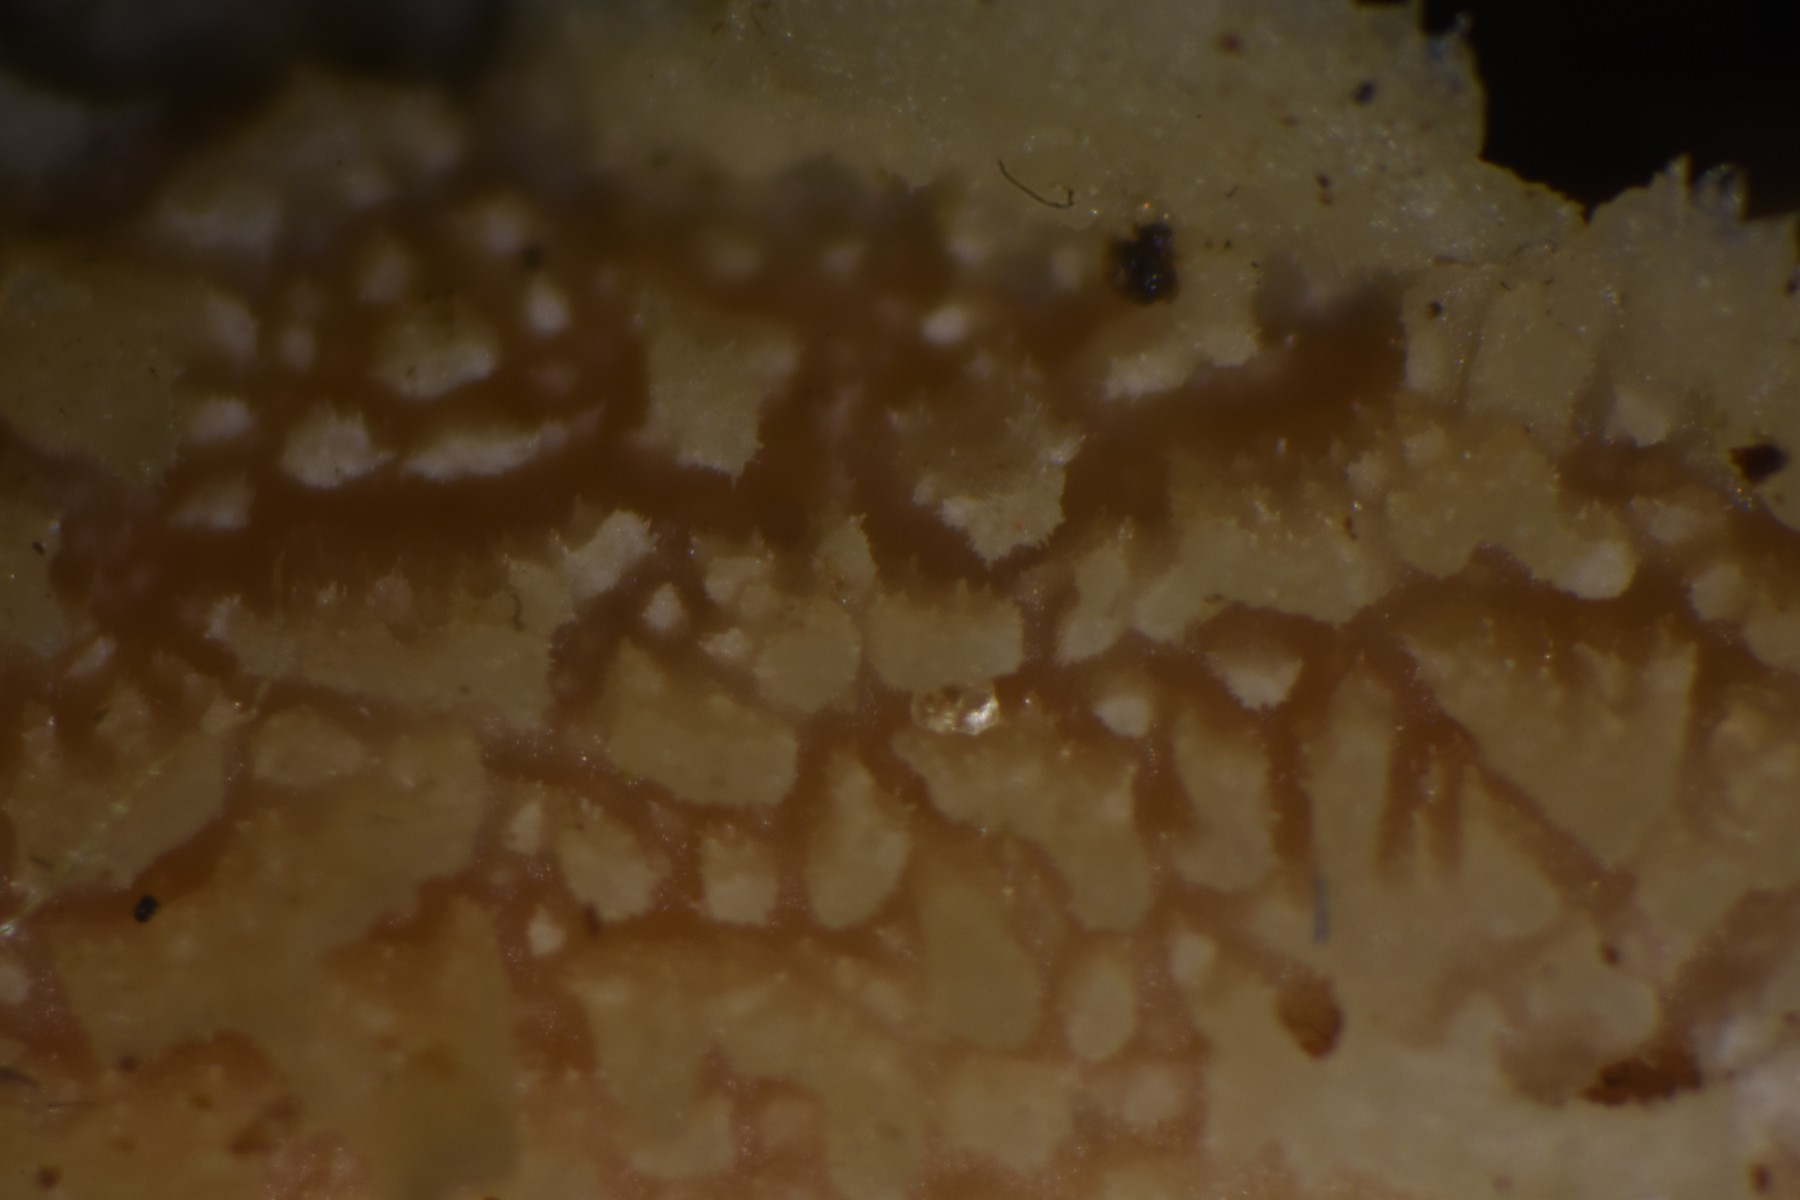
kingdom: Fungi
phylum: Basidiomycota
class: Agaricomycetes
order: Polyporales
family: Steccherinaceae
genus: Steccherinum
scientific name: Steccherinum oreophilum
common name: kvist-skønpig
